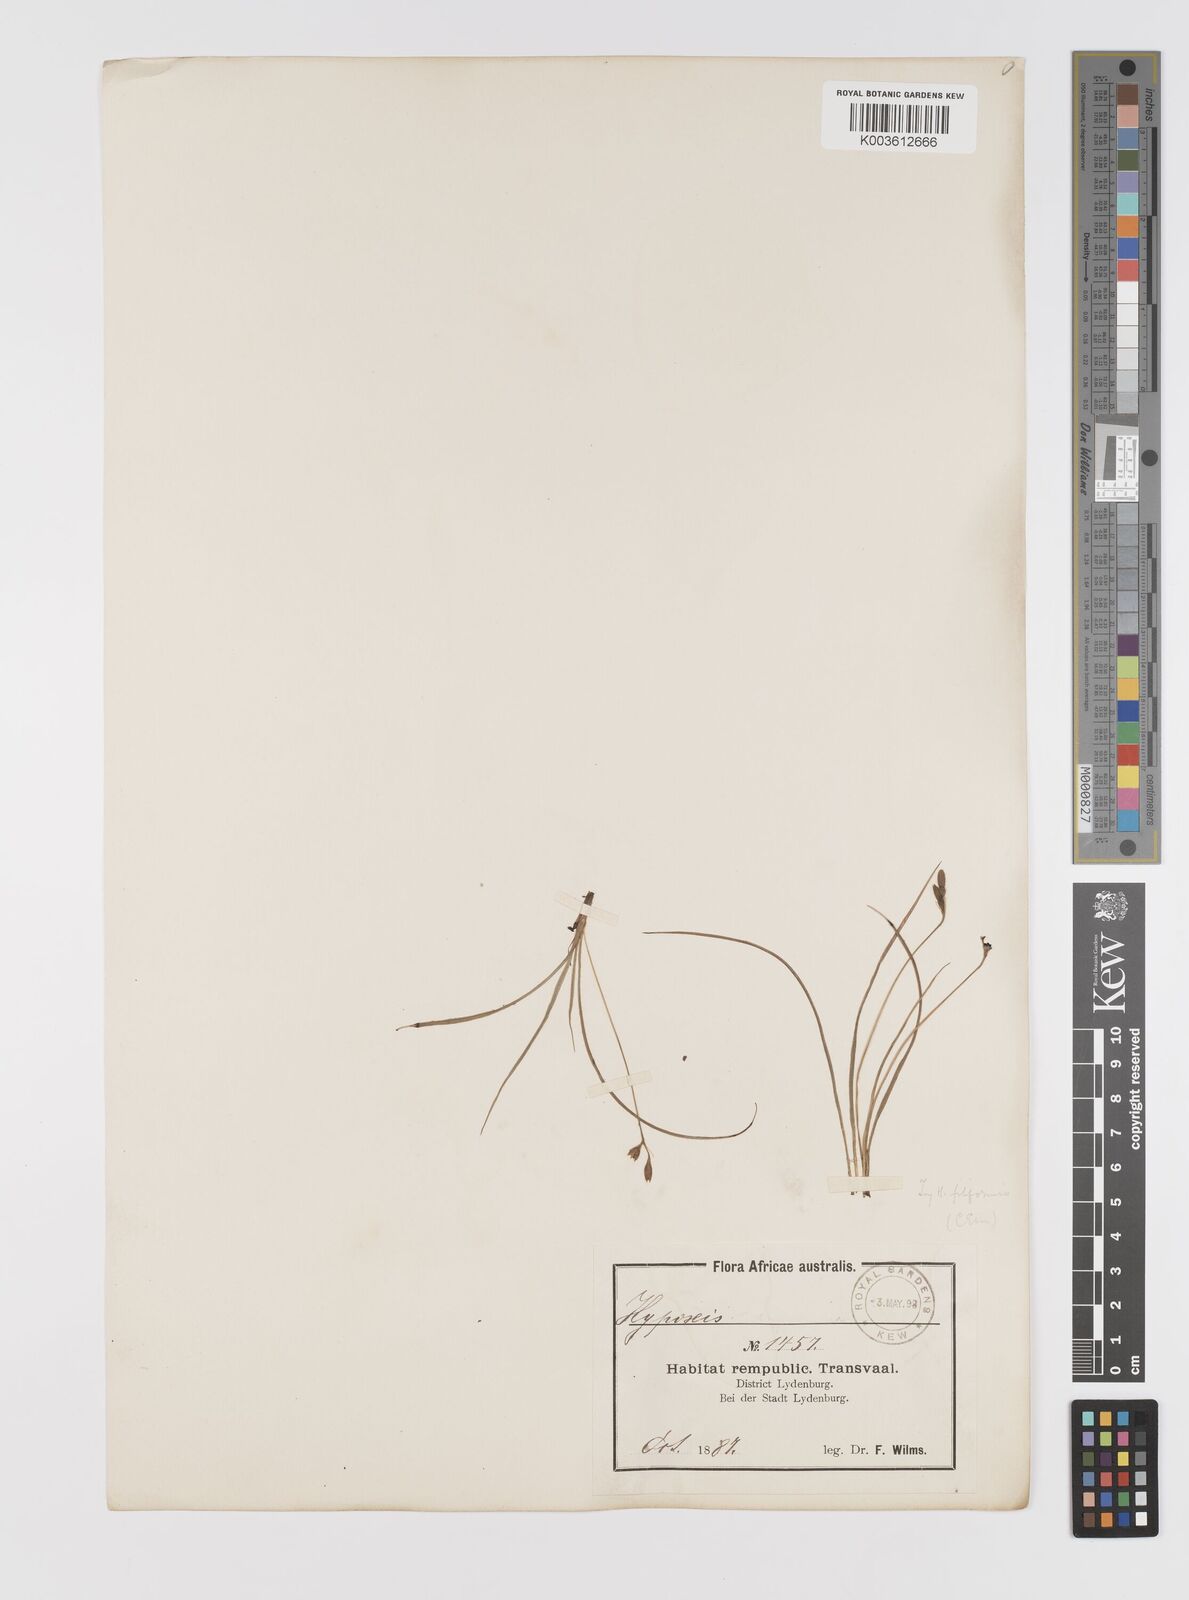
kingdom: Plantae
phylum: Tracheophyta
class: Liliopsida
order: Asparagales
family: Hypoxidaceae
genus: Hypoxis
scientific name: Hypoxis filiformis
